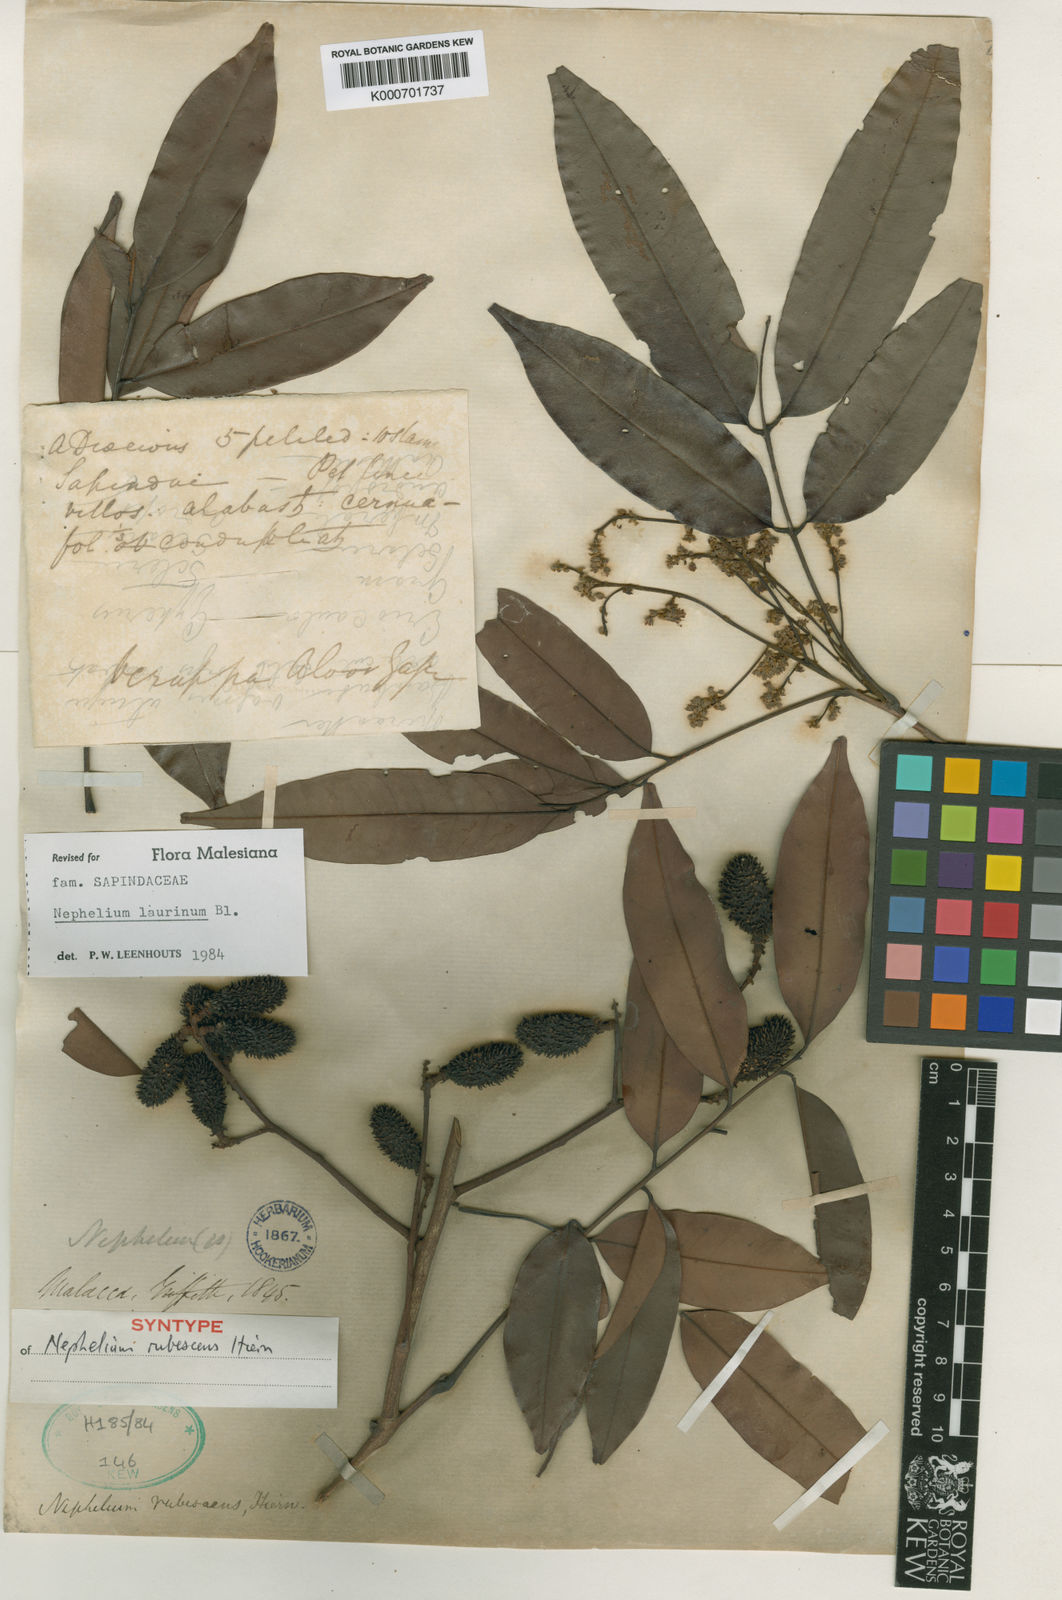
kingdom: Plantae
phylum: Tracheophyta
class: Magnoliopsida
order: Sapindales
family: Sapindaceae
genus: Nephelium
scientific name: Nephelium laurinum
